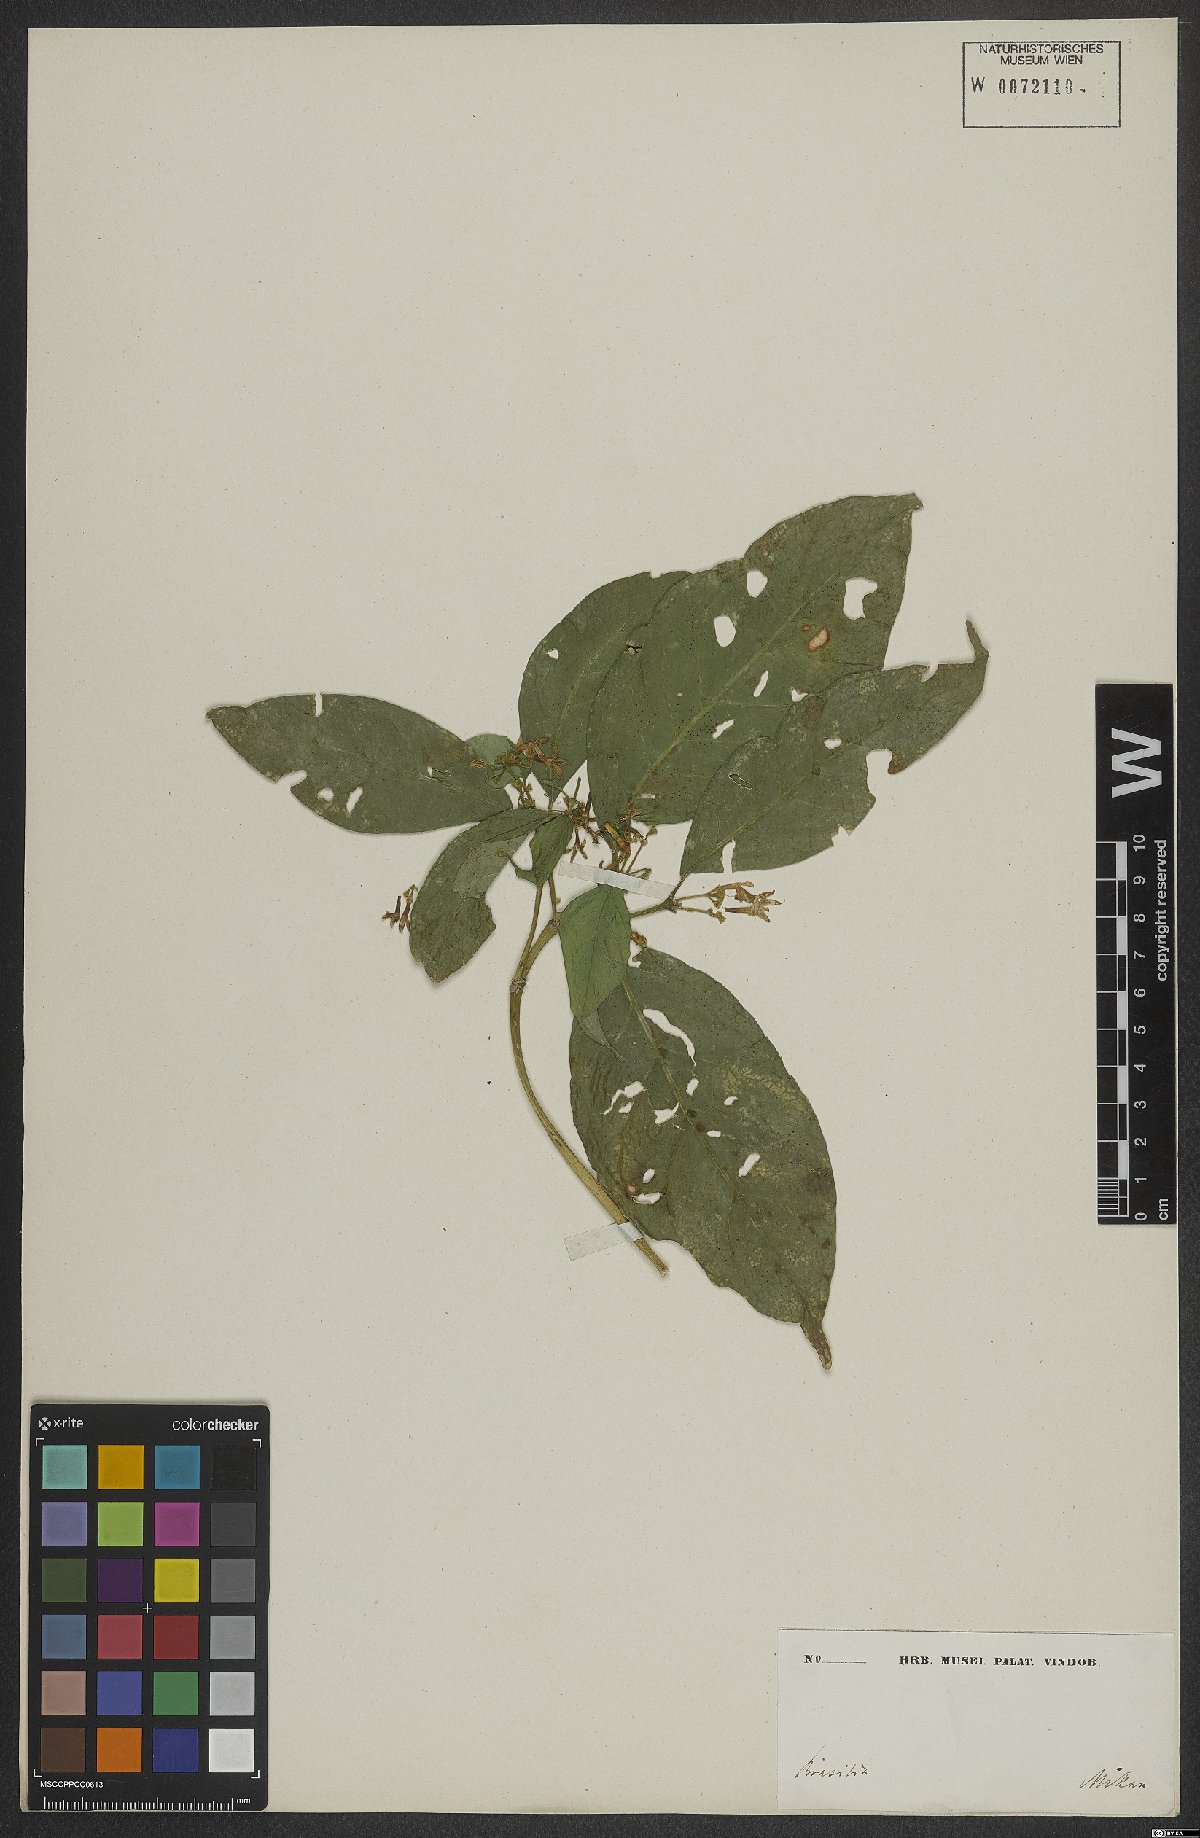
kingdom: Plantae
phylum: Tracheophyta
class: Magnoliopsida
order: Gentianales
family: Rubiaceae
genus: Coussarea
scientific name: Coussarea nodosa
